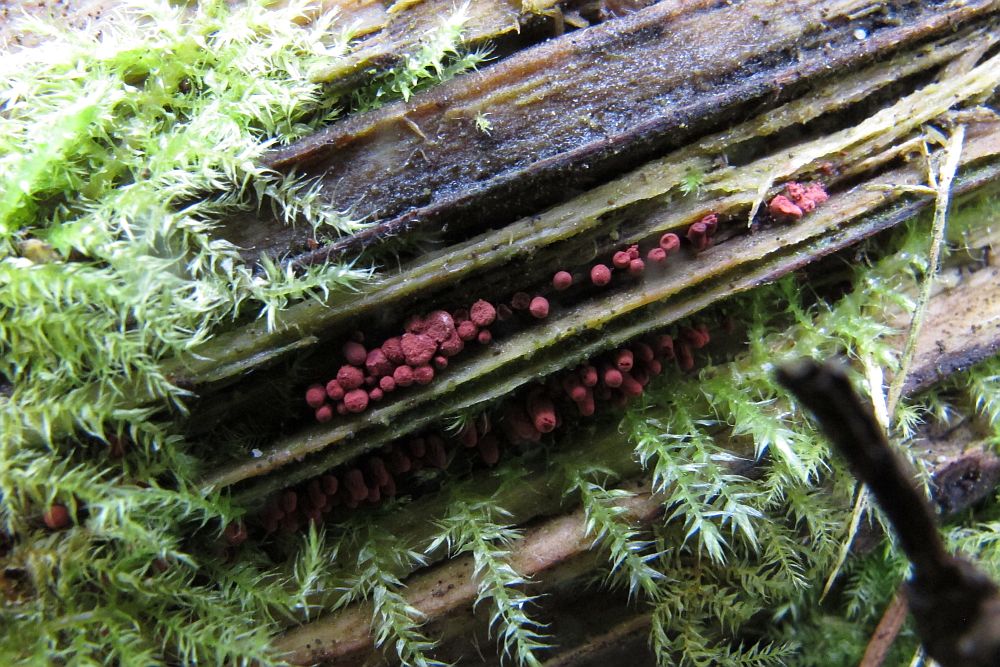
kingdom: Protozoa
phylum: Mycetozoa
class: Myxomycetes
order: Trichiales
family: Arcyriaceae
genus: Arcyria
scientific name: Arcyria denudata
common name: karminrød skålsvøb
